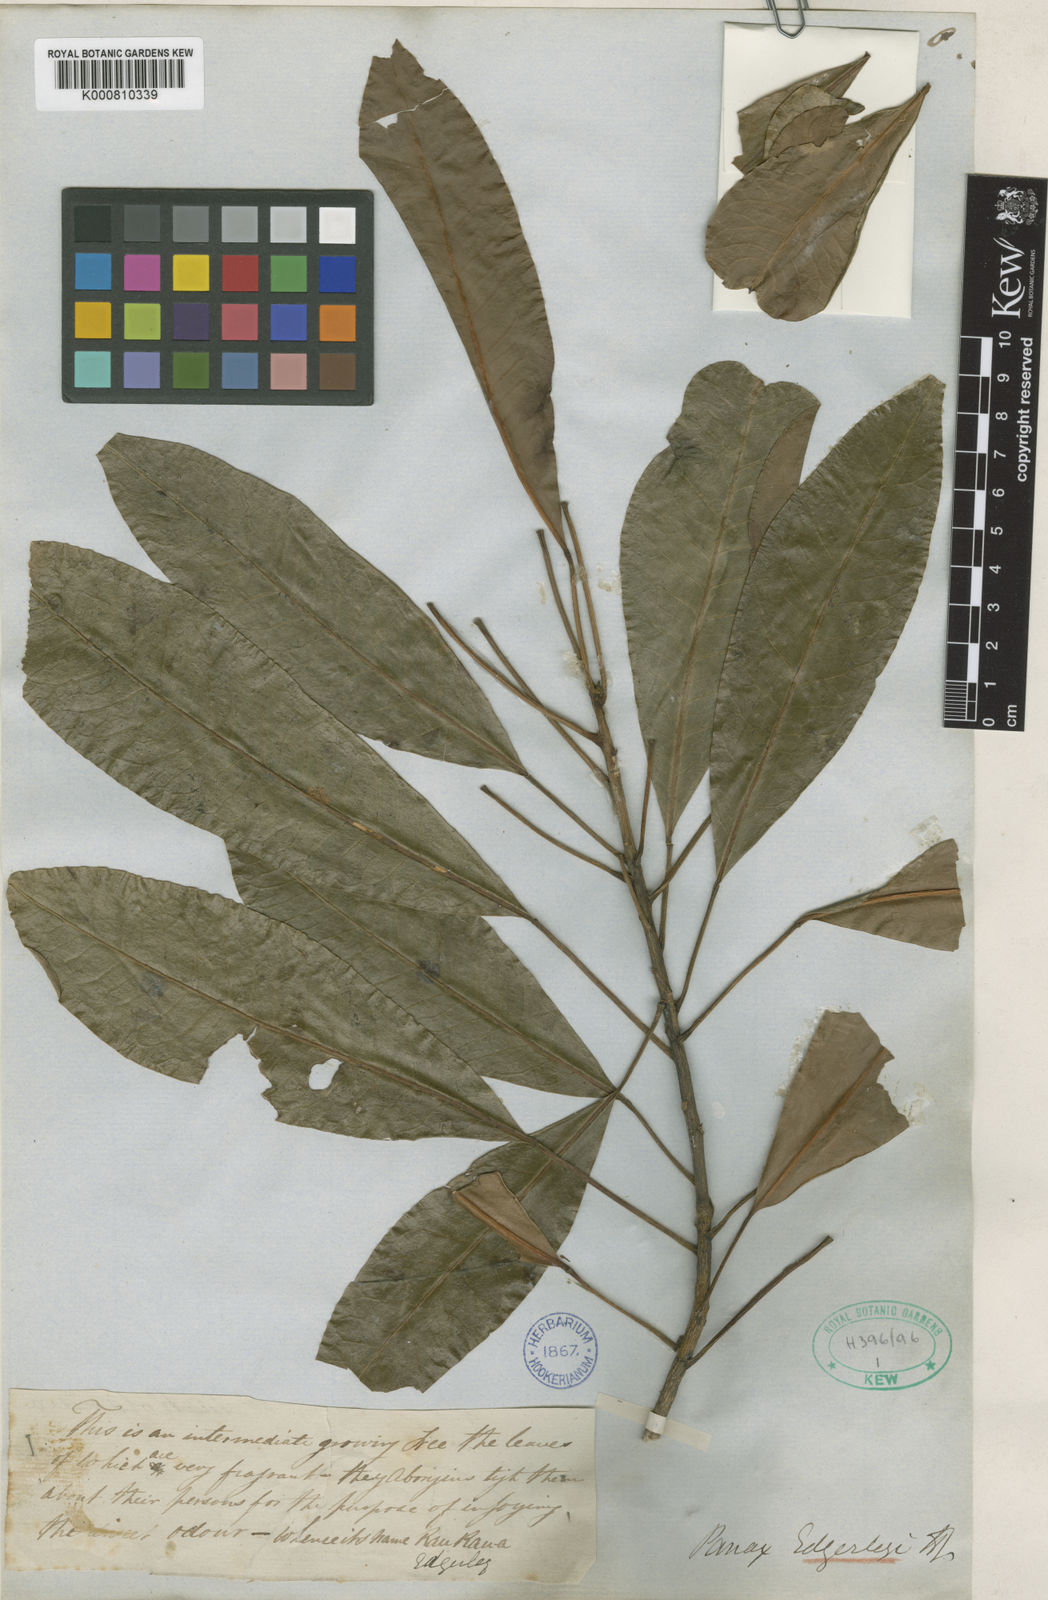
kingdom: Plantae
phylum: Tracheophyta
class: Magnoliopsida
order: Apiales
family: Araliaceae
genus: Raukaua
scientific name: Raukaua edgerleyi
